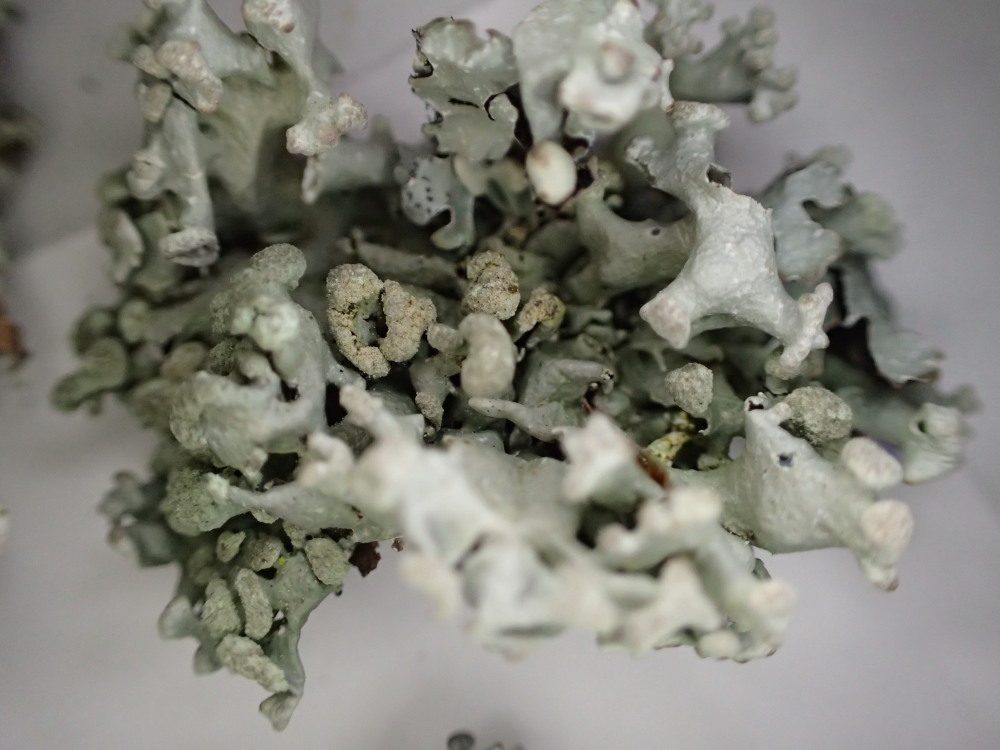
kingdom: Fungi
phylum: Ascomycota
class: Lecanoromycetes
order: Lecanorales
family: Parmeliaceae
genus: Hypogymnia
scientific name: Hypogymnia tubulosa
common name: finger-kvistlav
